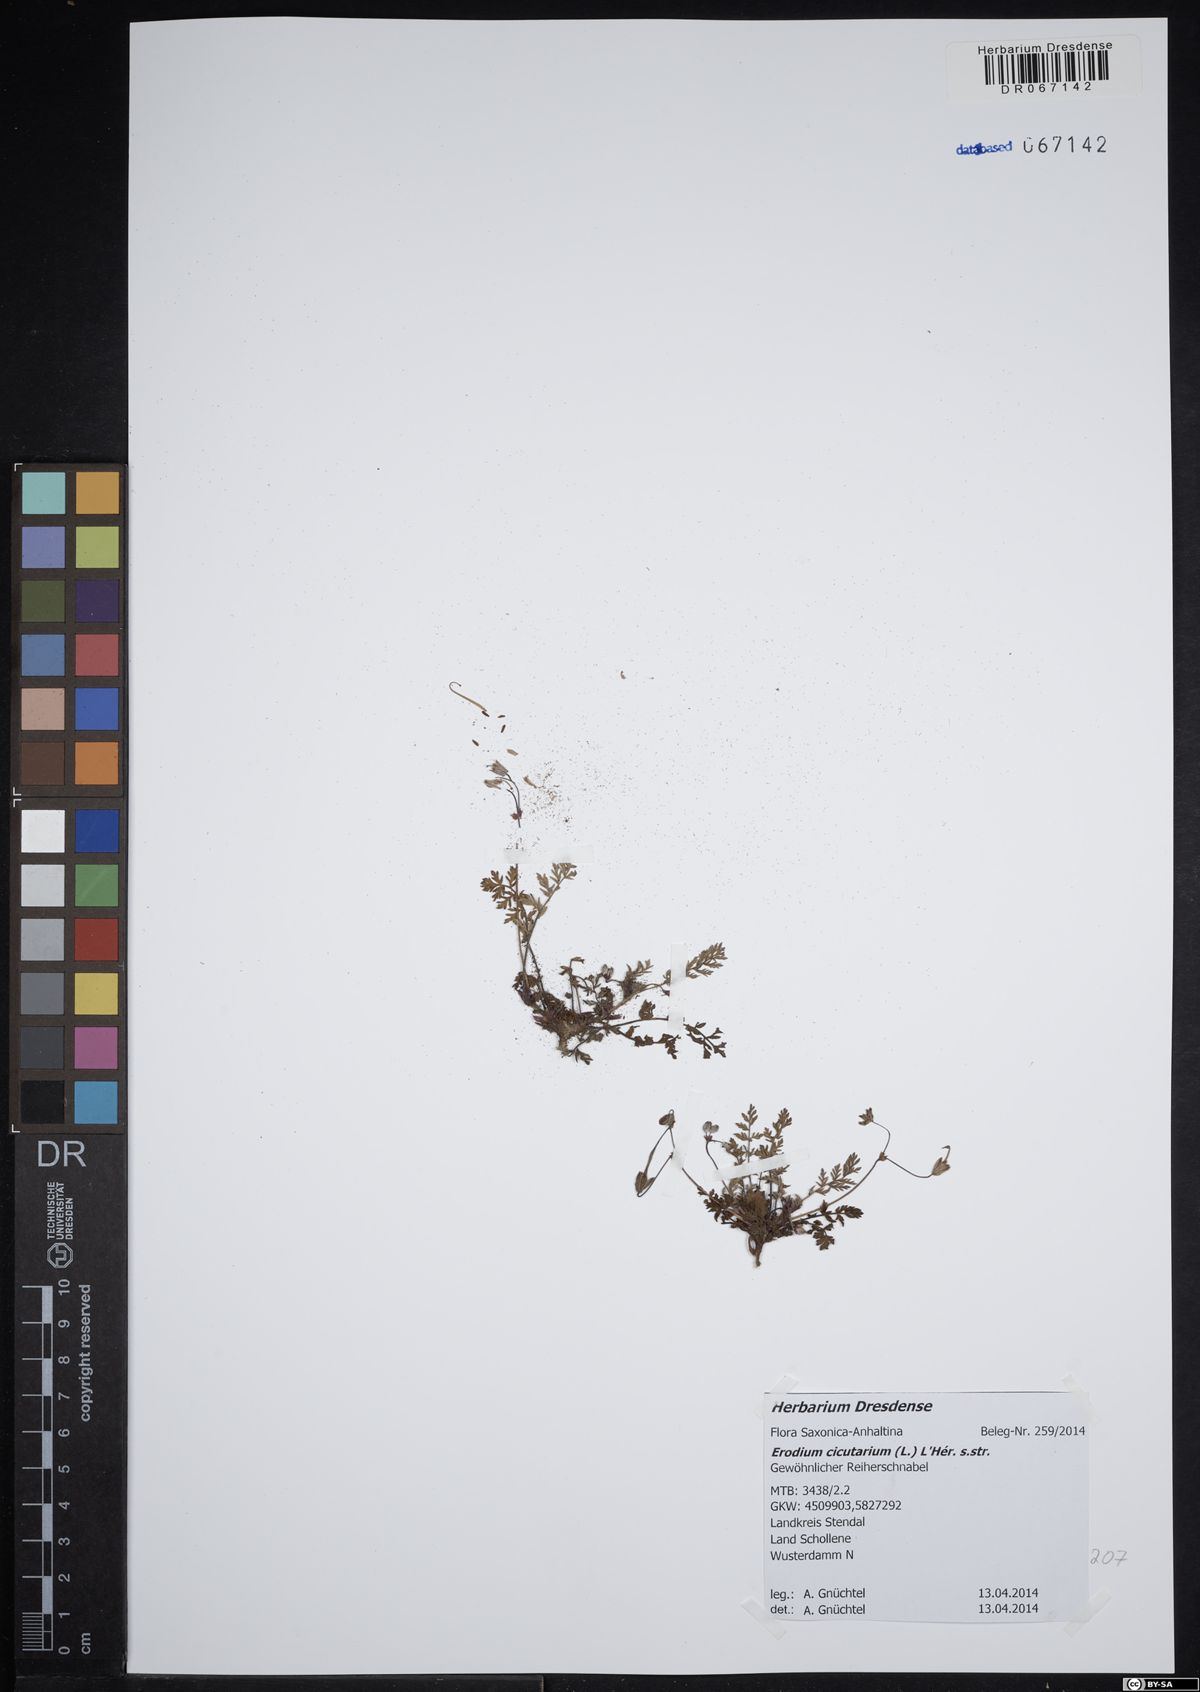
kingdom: Plantae
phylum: Tracheophyta
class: Magnoliopsida
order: Geraniales
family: Geraniaceae
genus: Erodium
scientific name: Erodium cicutarium
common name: Common stork's-bill
